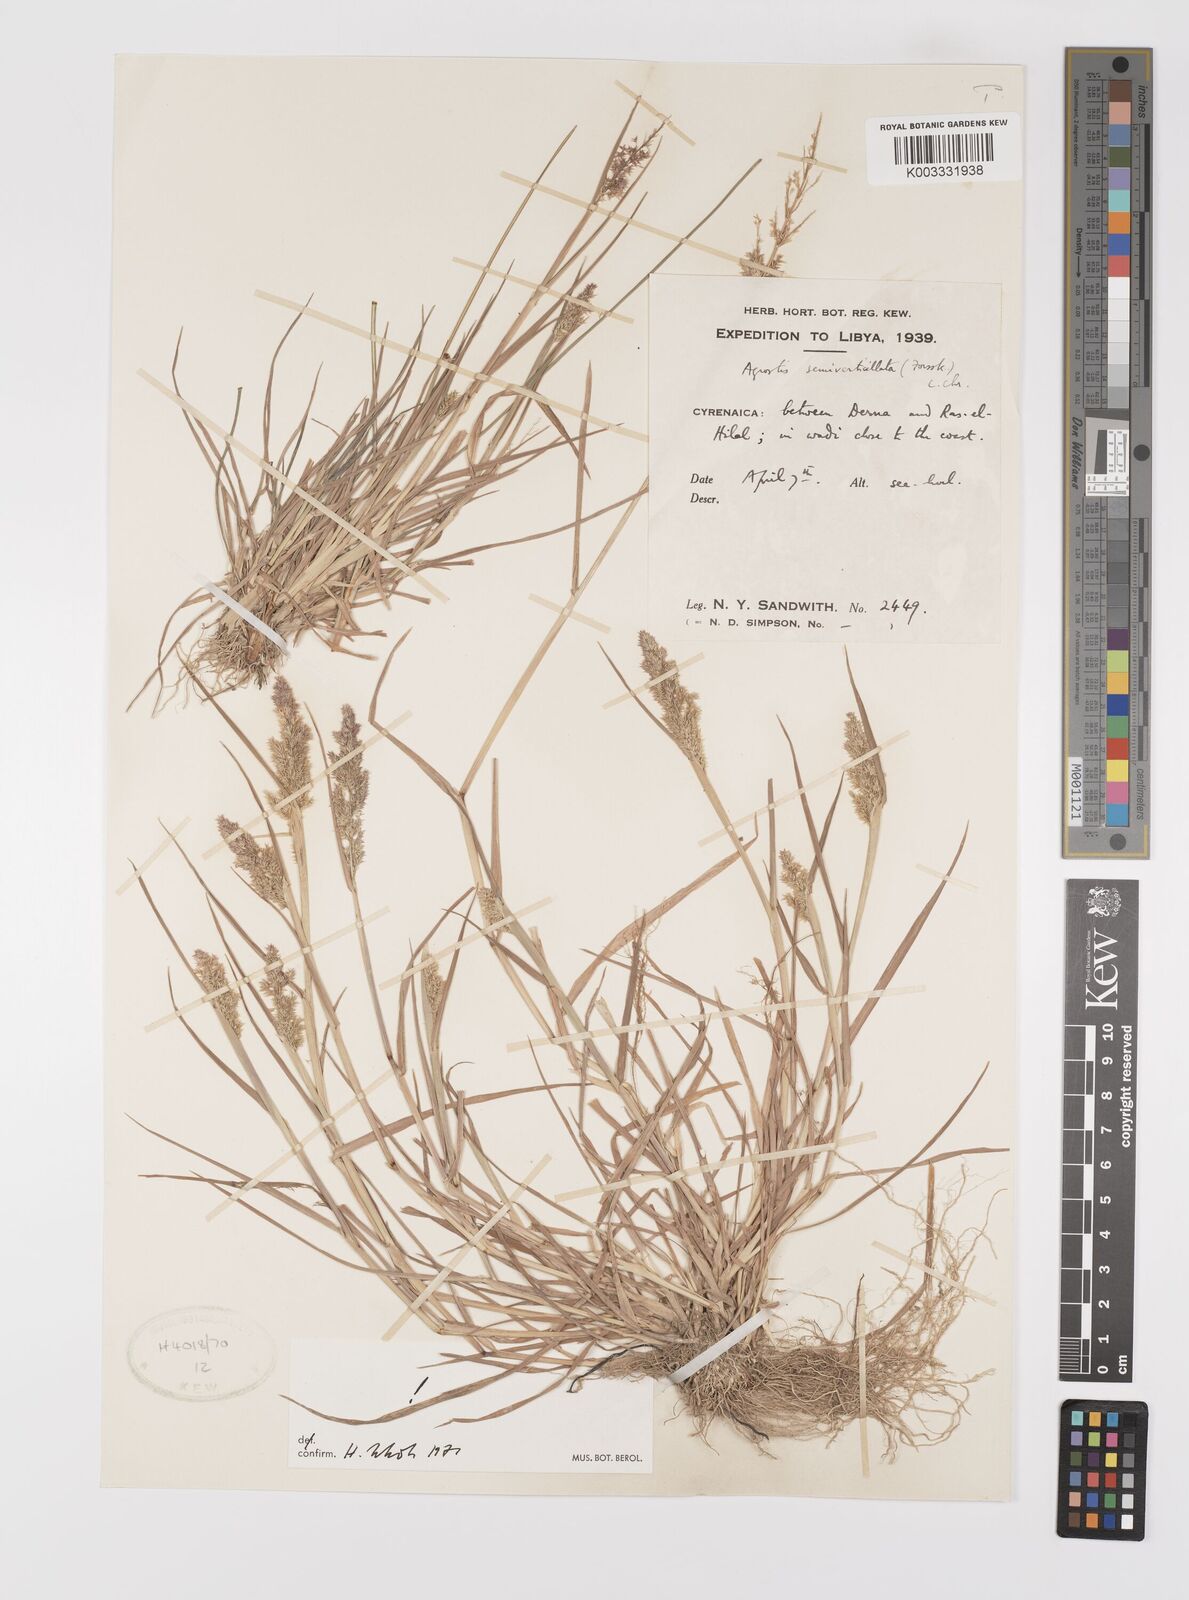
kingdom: Plantae
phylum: Tracheophyta
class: Liliopsida
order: Poales
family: Poaceae
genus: Polypogon
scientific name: Polypogon viridis
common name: Water bent
